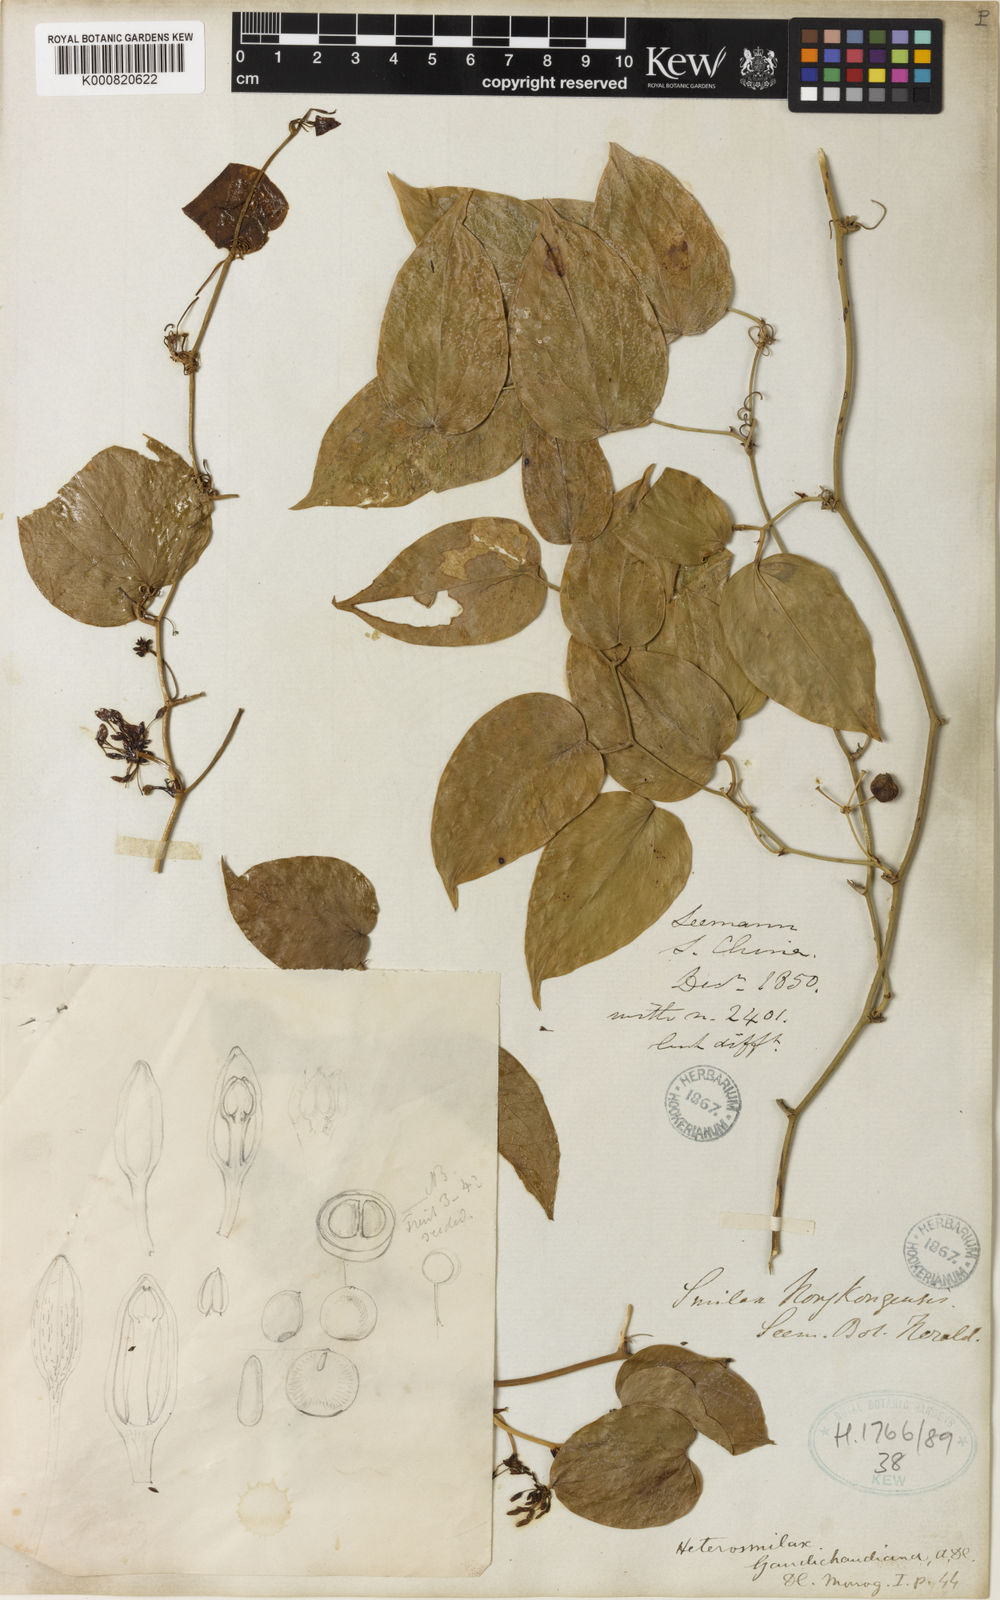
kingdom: Plantae
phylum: Tracheophyta
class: Liliopsida
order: Liliales
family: Smilacaceae
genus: Smilax
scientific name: Smilax
